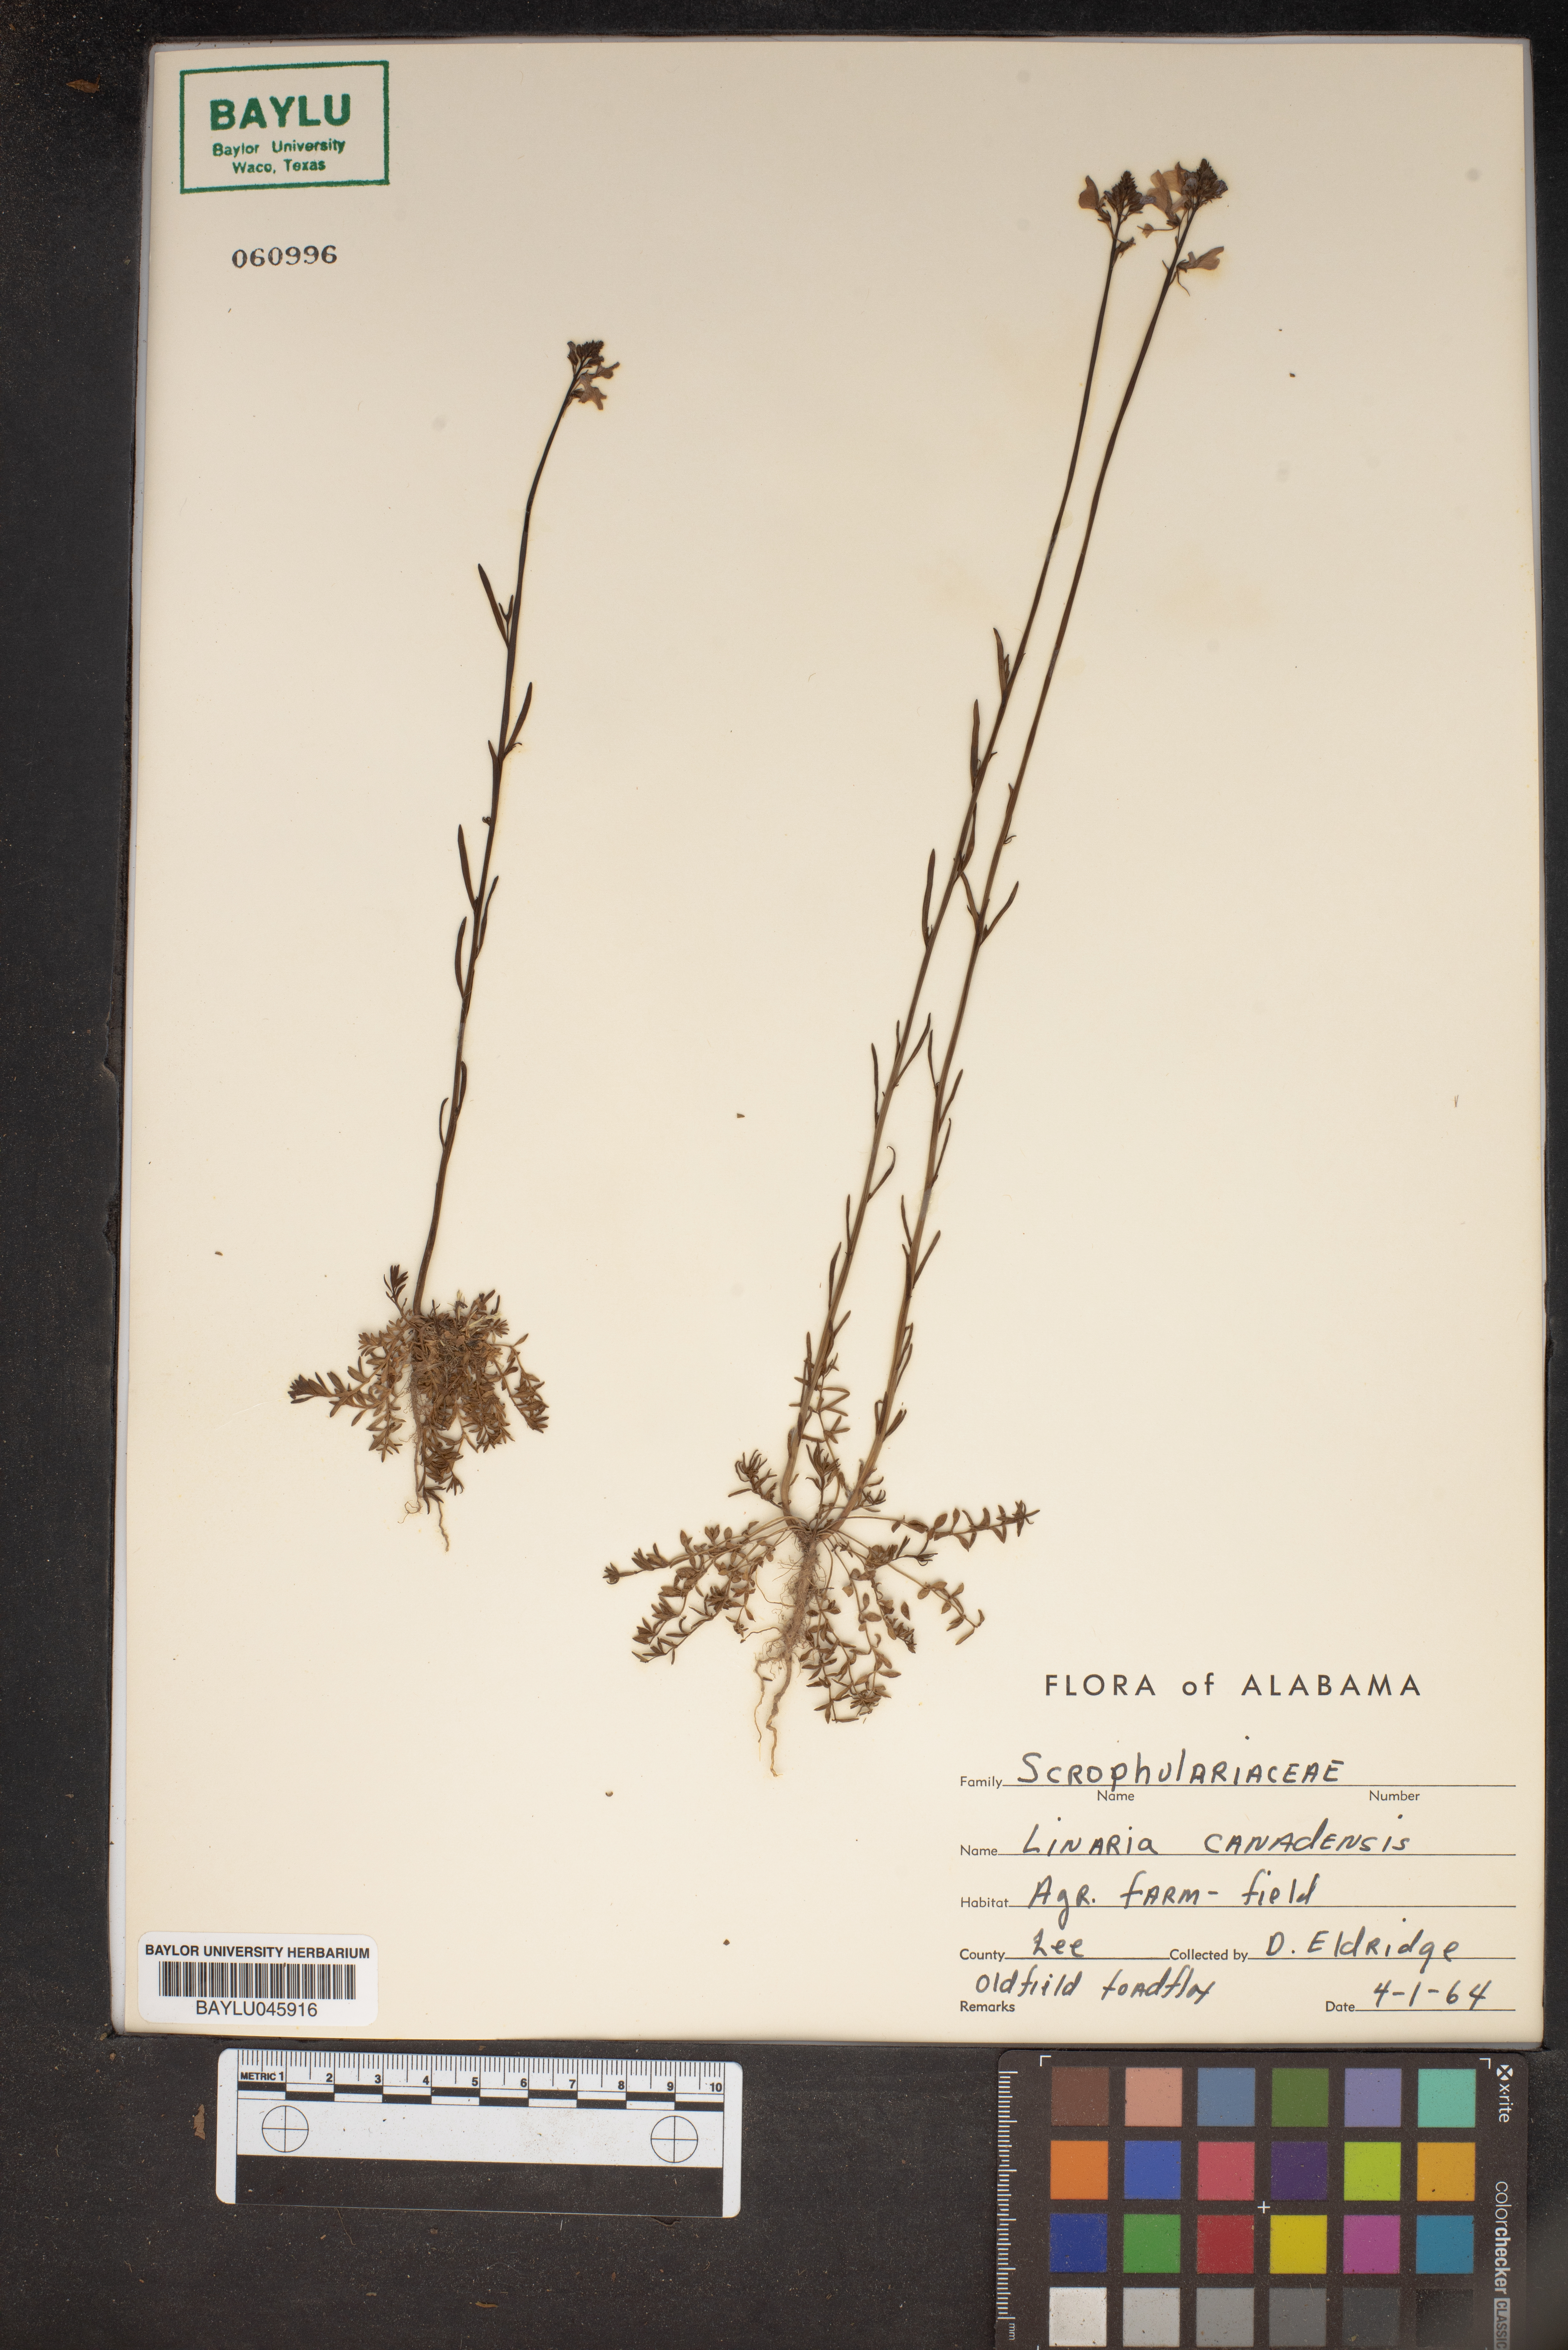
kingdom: Plantae
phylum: Tracheophyta
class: Magnoliopsida
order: Lamiales
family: Plantaginaceae
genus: Nuttallanthus
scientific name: Nuttallanthus canadensis
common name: Blue toadflax
